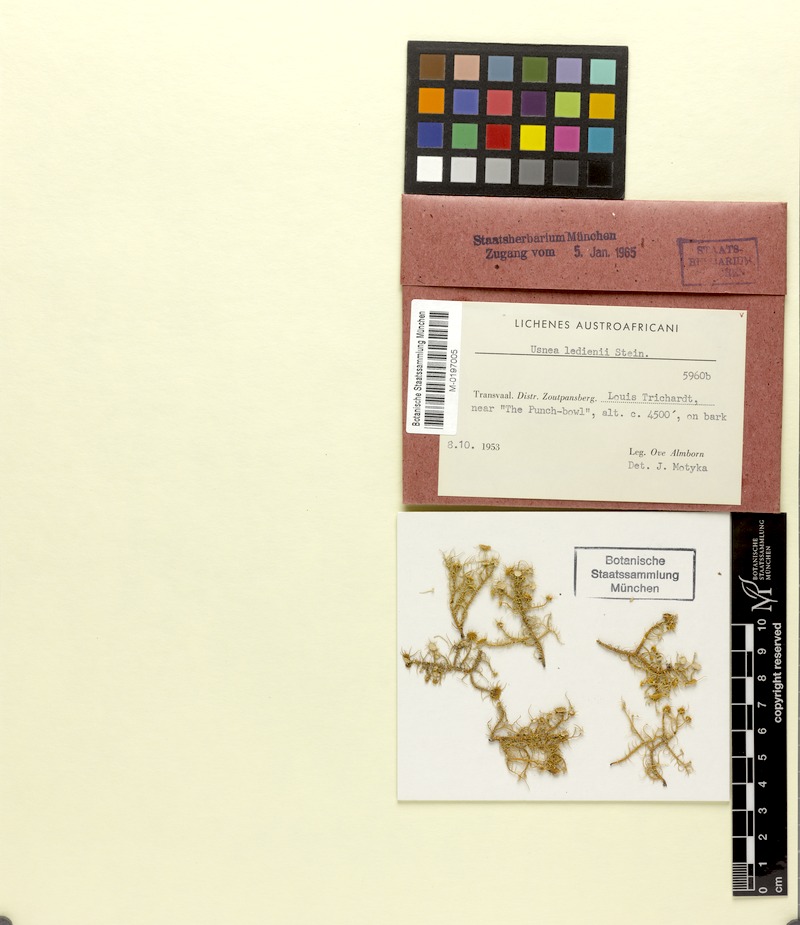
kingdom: Fungi
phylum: Ascomycota
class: Lecanoromycetes
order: Lecanorales
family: Parmeliaceae
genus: Usnea
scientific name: Usnea
